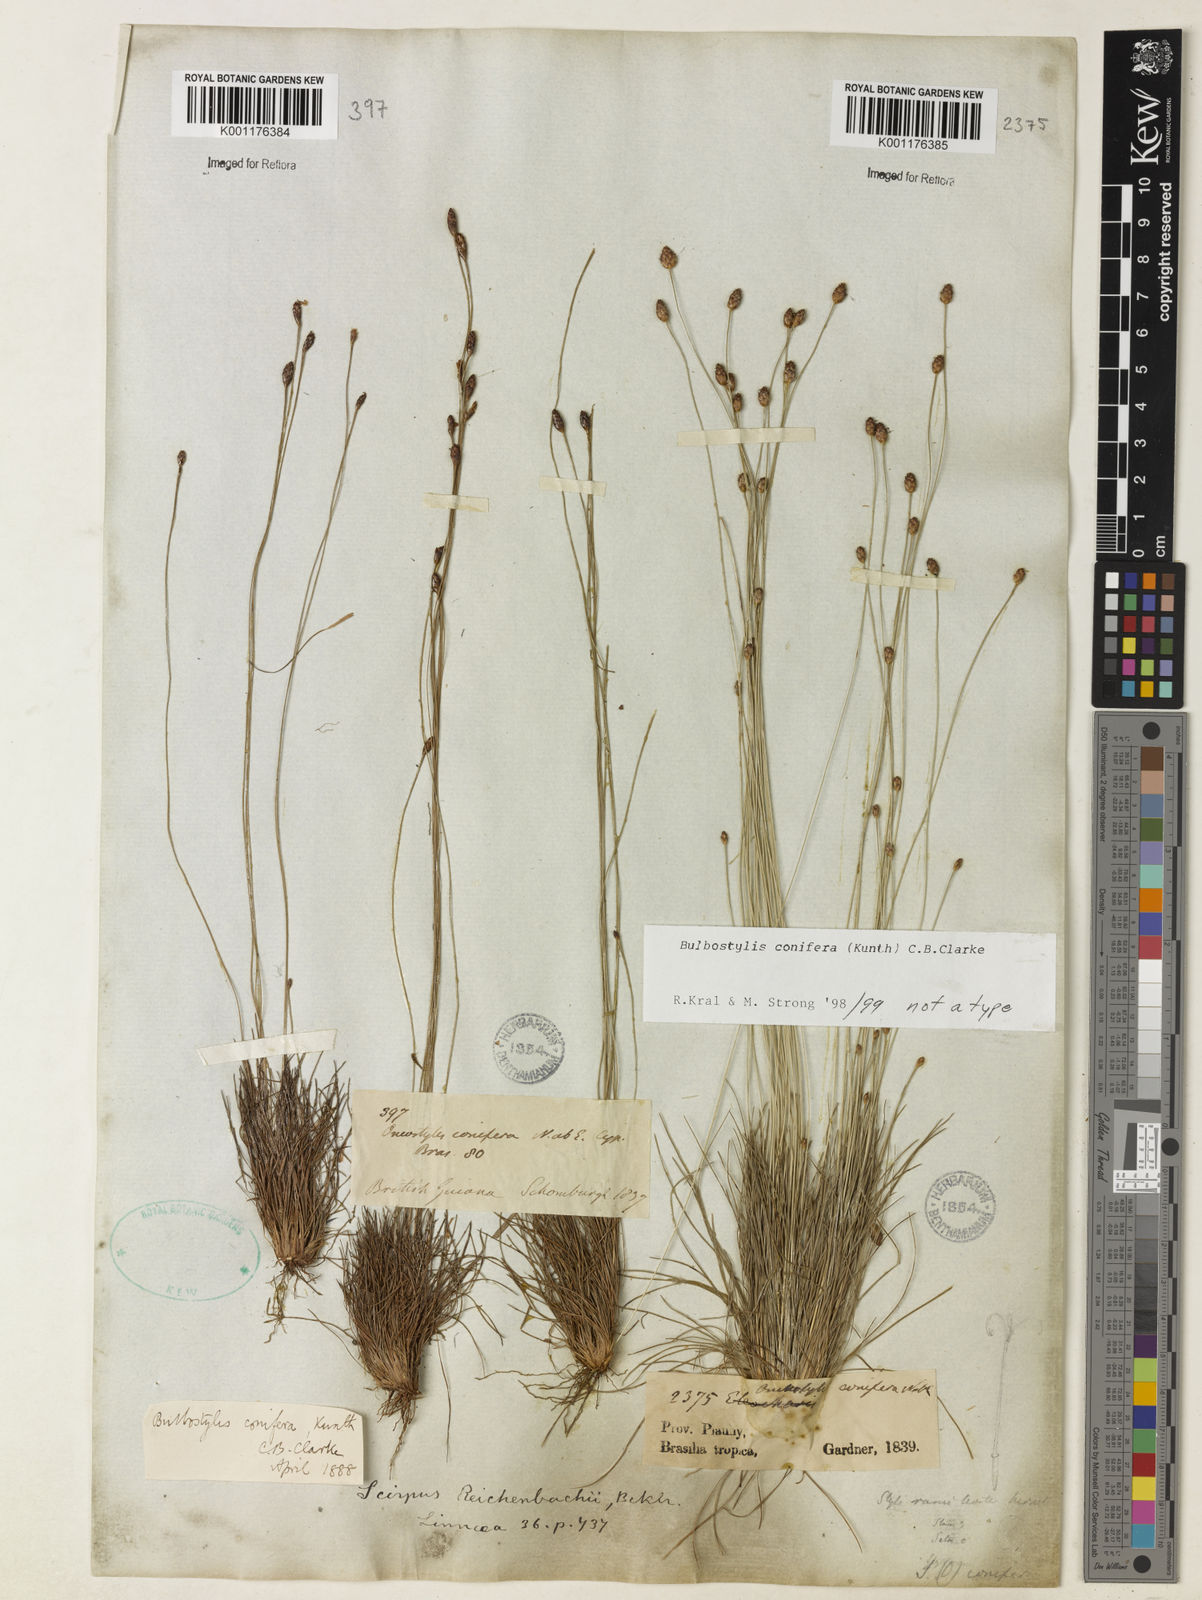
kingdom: Plantae
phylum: Tracheophyta
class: Liliopsida
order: Poales
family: Cyperaceae
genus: Bulbostylis
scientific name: Bulbostylis conifera
